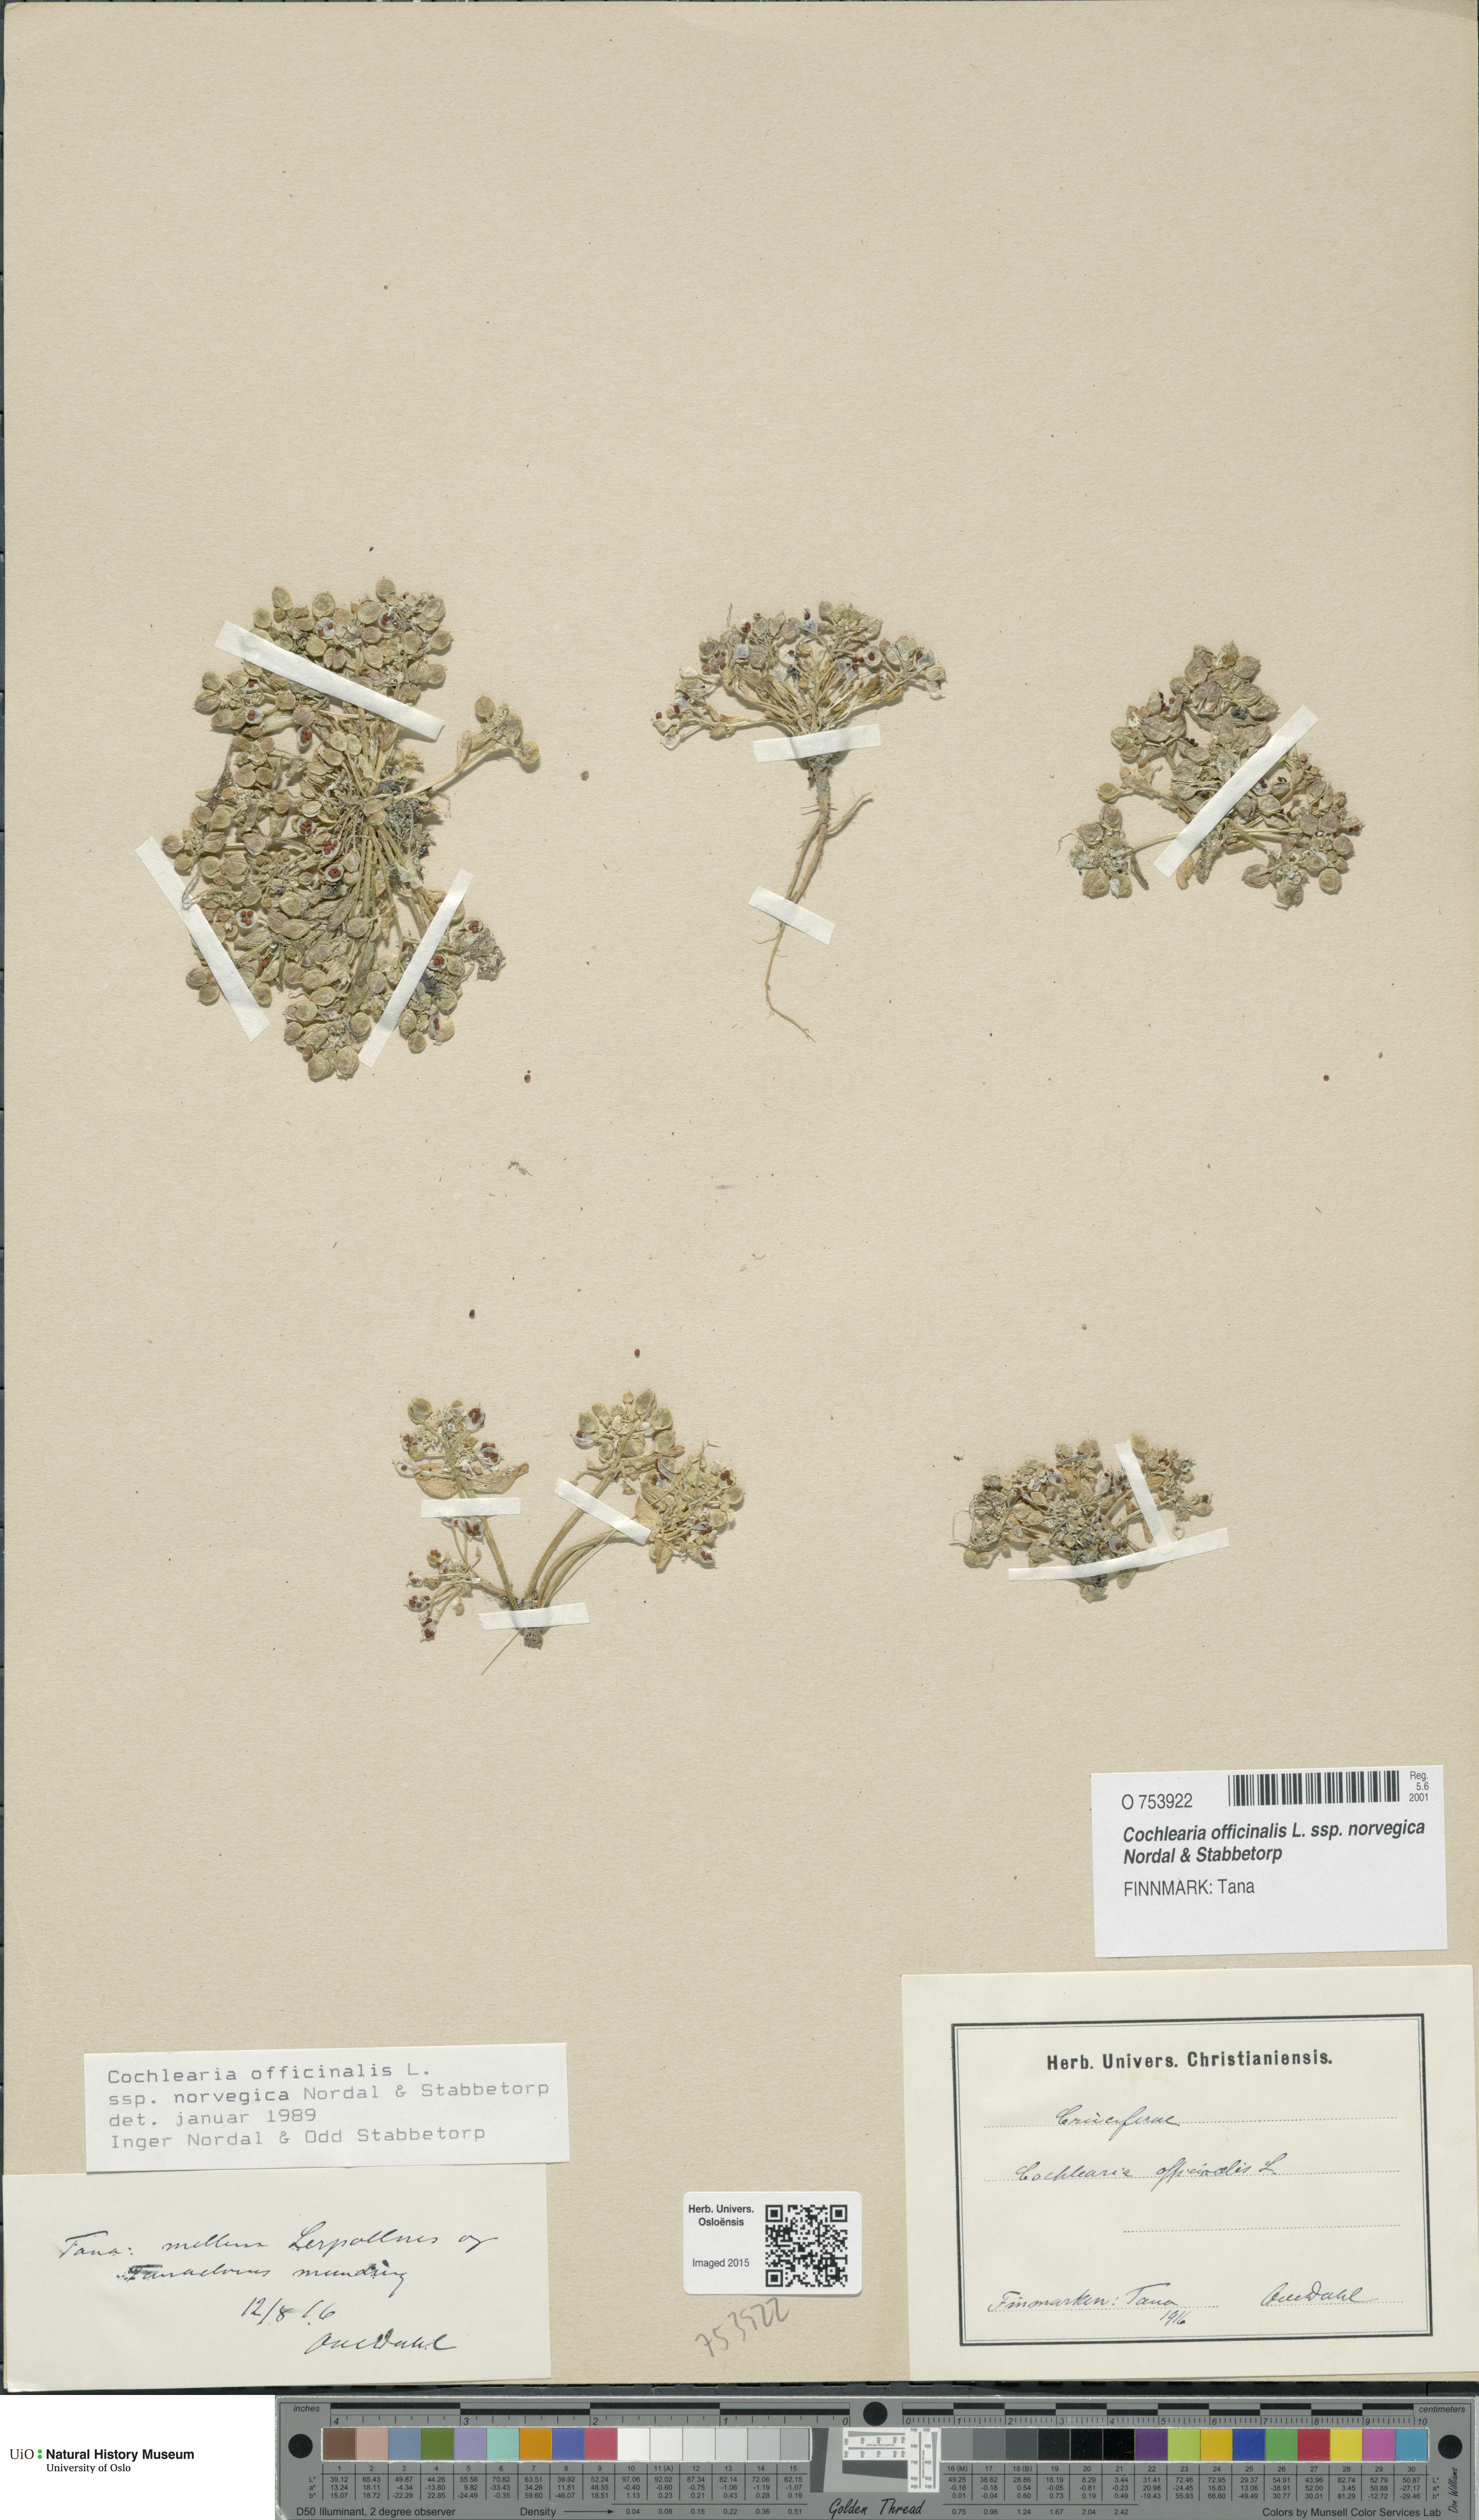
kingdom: Plantae
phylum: Tracheophyta
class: Magnoliopsida
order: Brassicales
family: Brassicaceae
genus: Cochlearia
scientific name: Cochlearia officinalis
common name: Scurvy-grass
